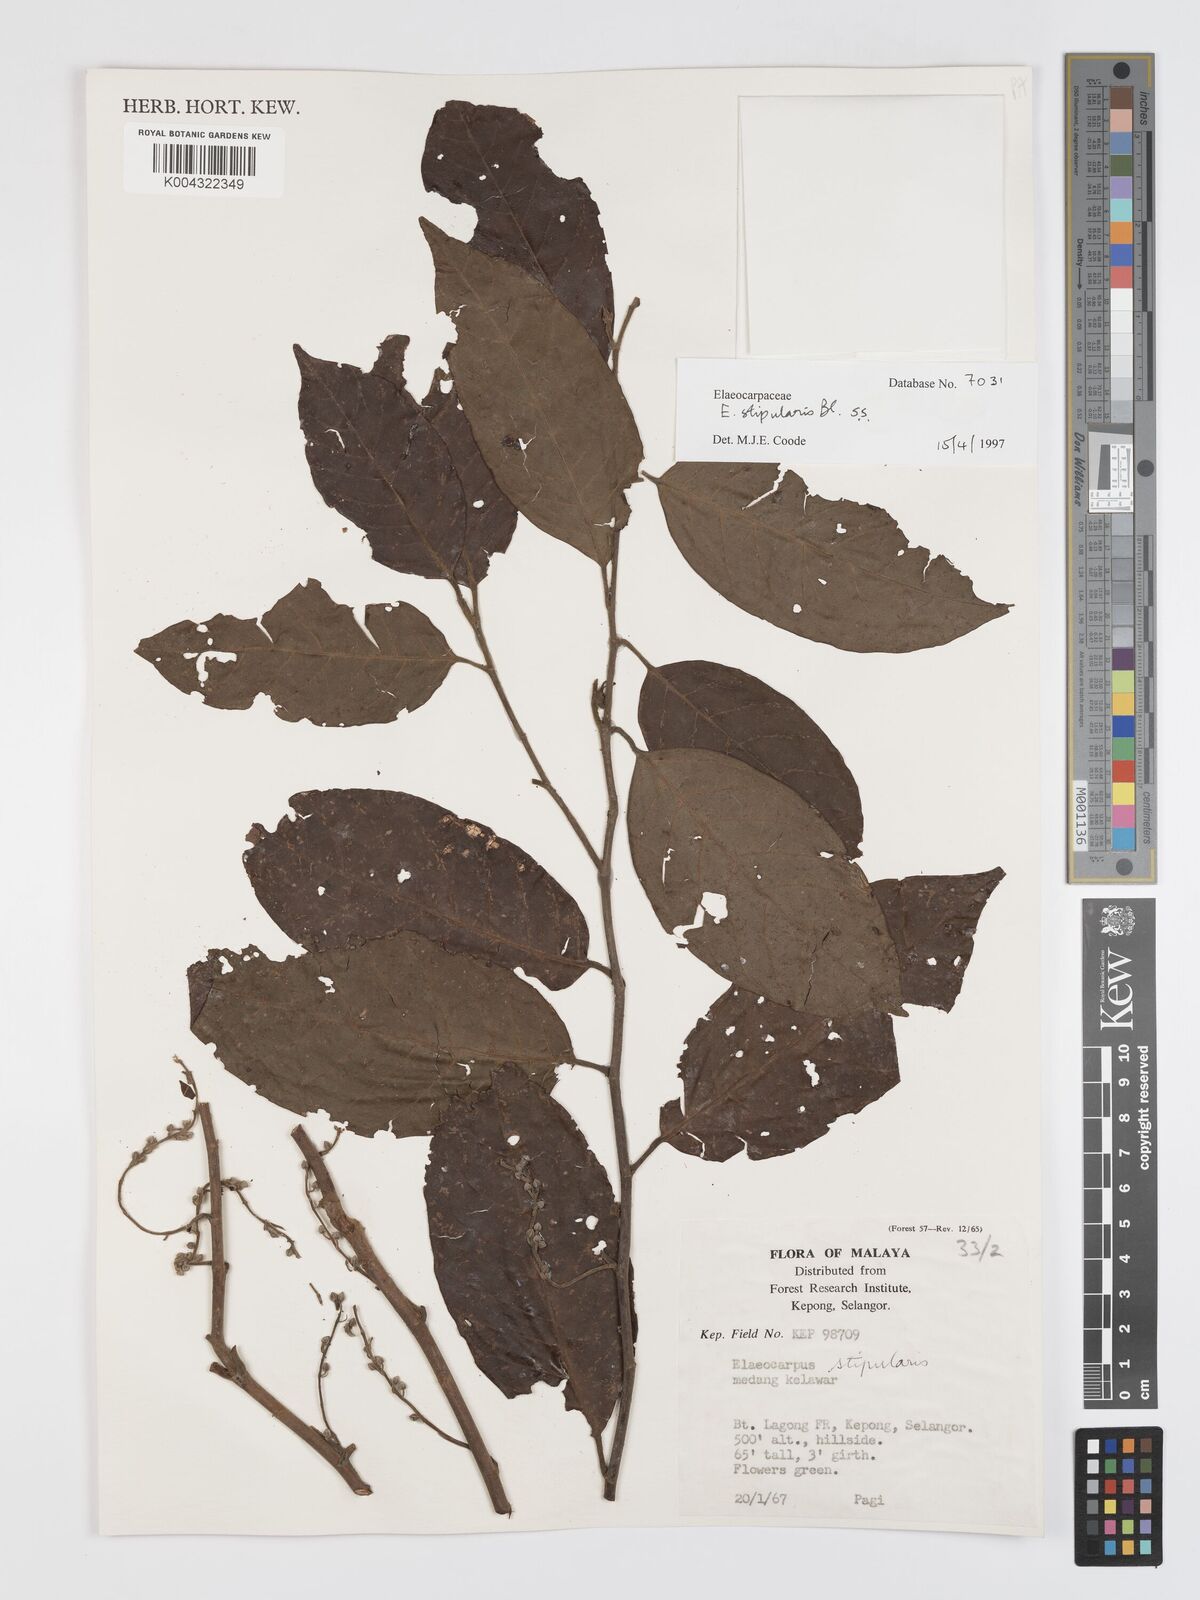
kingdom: Plantae
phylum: Tracheophyta
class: Magnoliopsida
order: Oxalidales
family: Elaeocarpaceae
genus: Elaeocarpus
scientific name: Elaeocarpus stipularis
